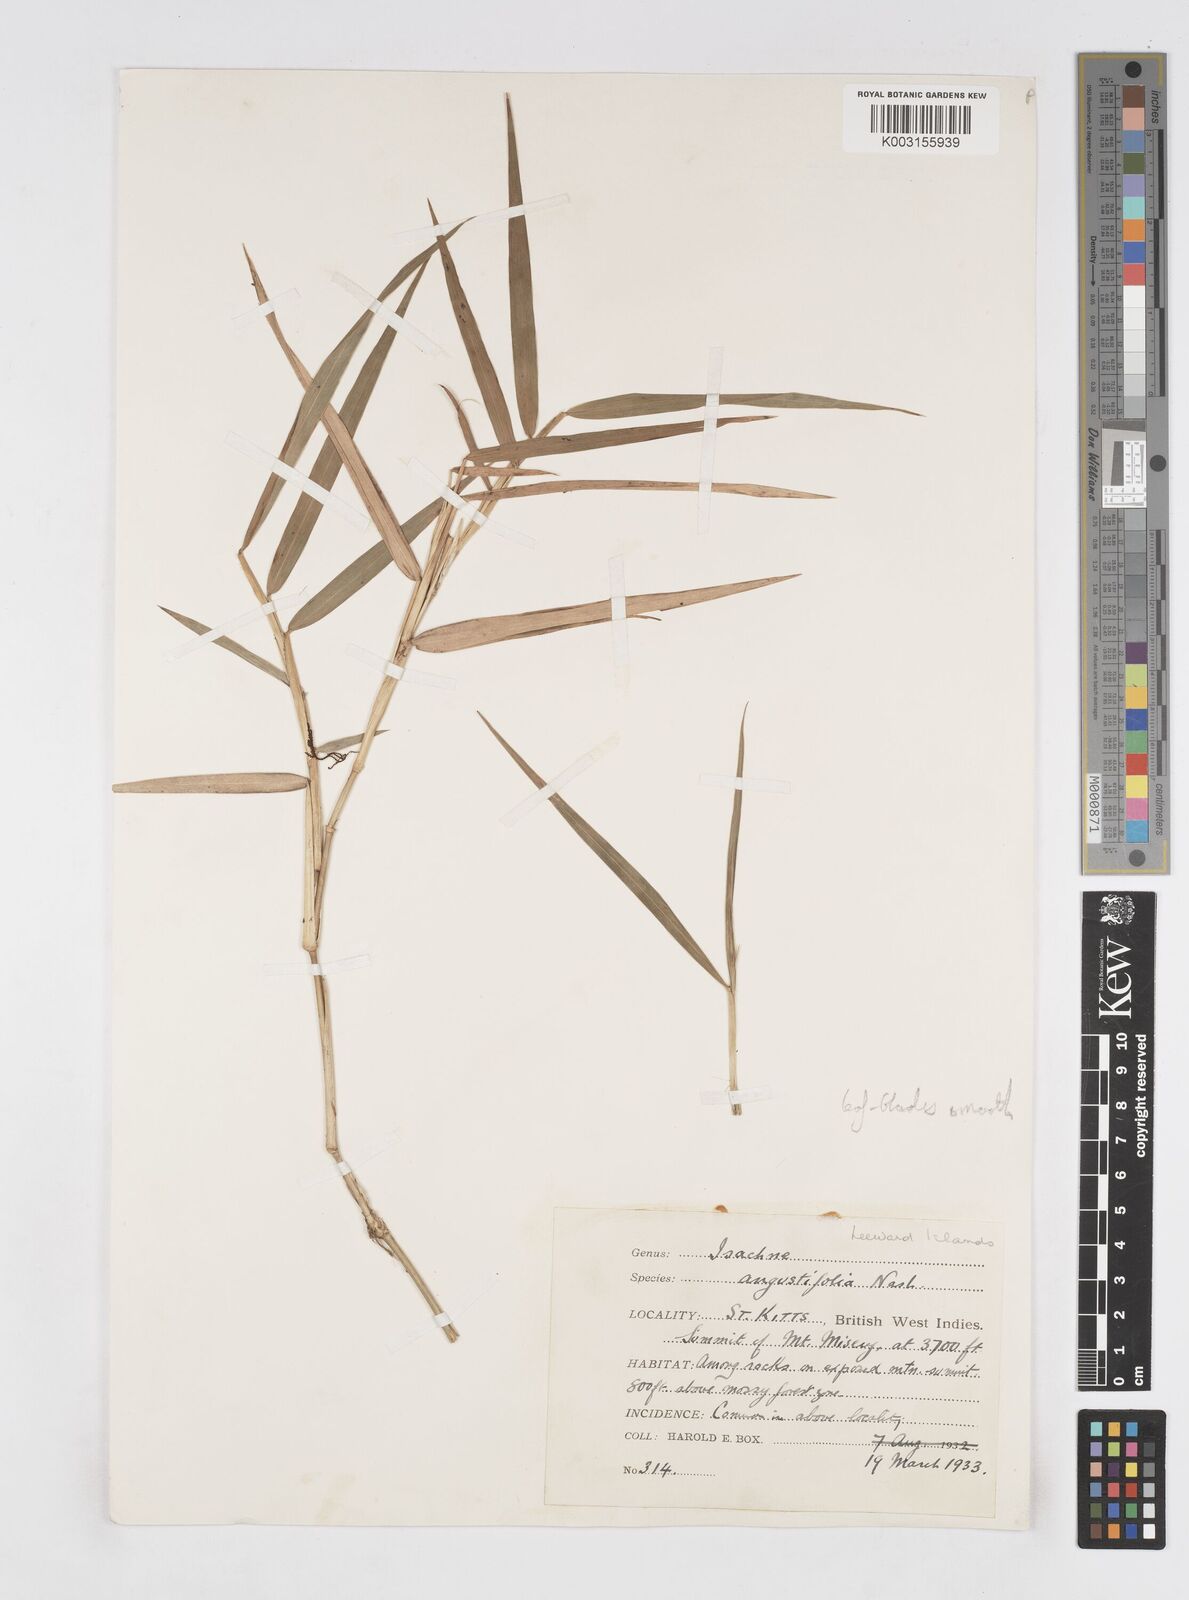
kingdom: Plantae
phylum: Tracheophyta
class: Liliopsida
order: Poales
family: Poaceae
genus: Isachne
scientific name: Isachne
